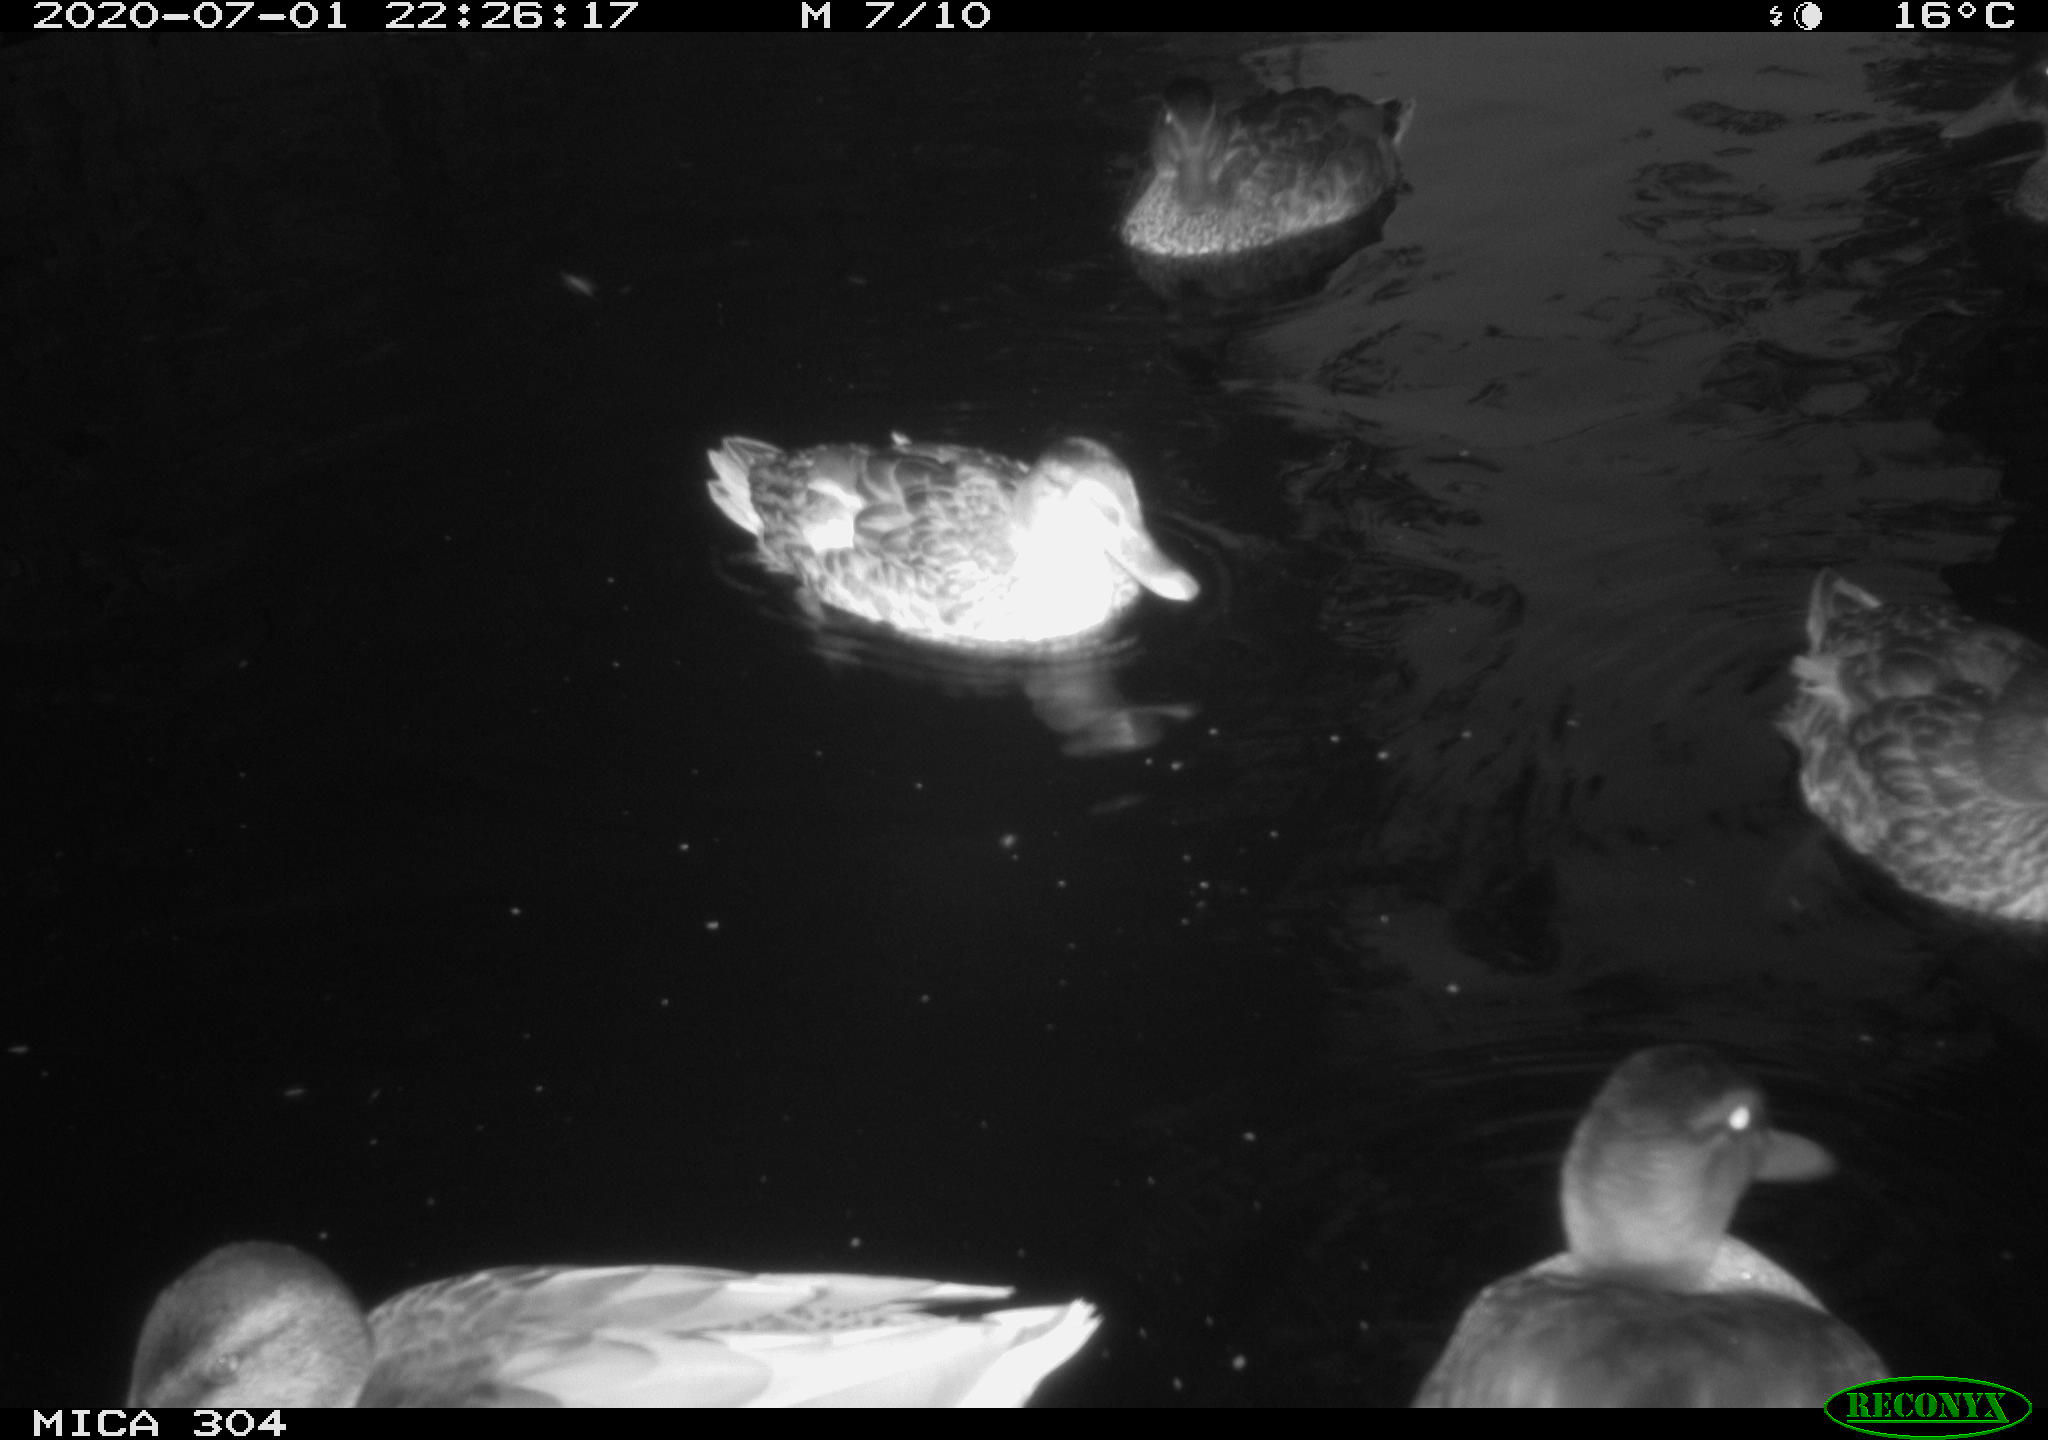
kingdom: Animalia
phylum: Chordata
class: Aves
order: Anseriformes
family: Anatidae
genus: Anas
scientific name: Anas platyrhynchos
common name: Mallard
